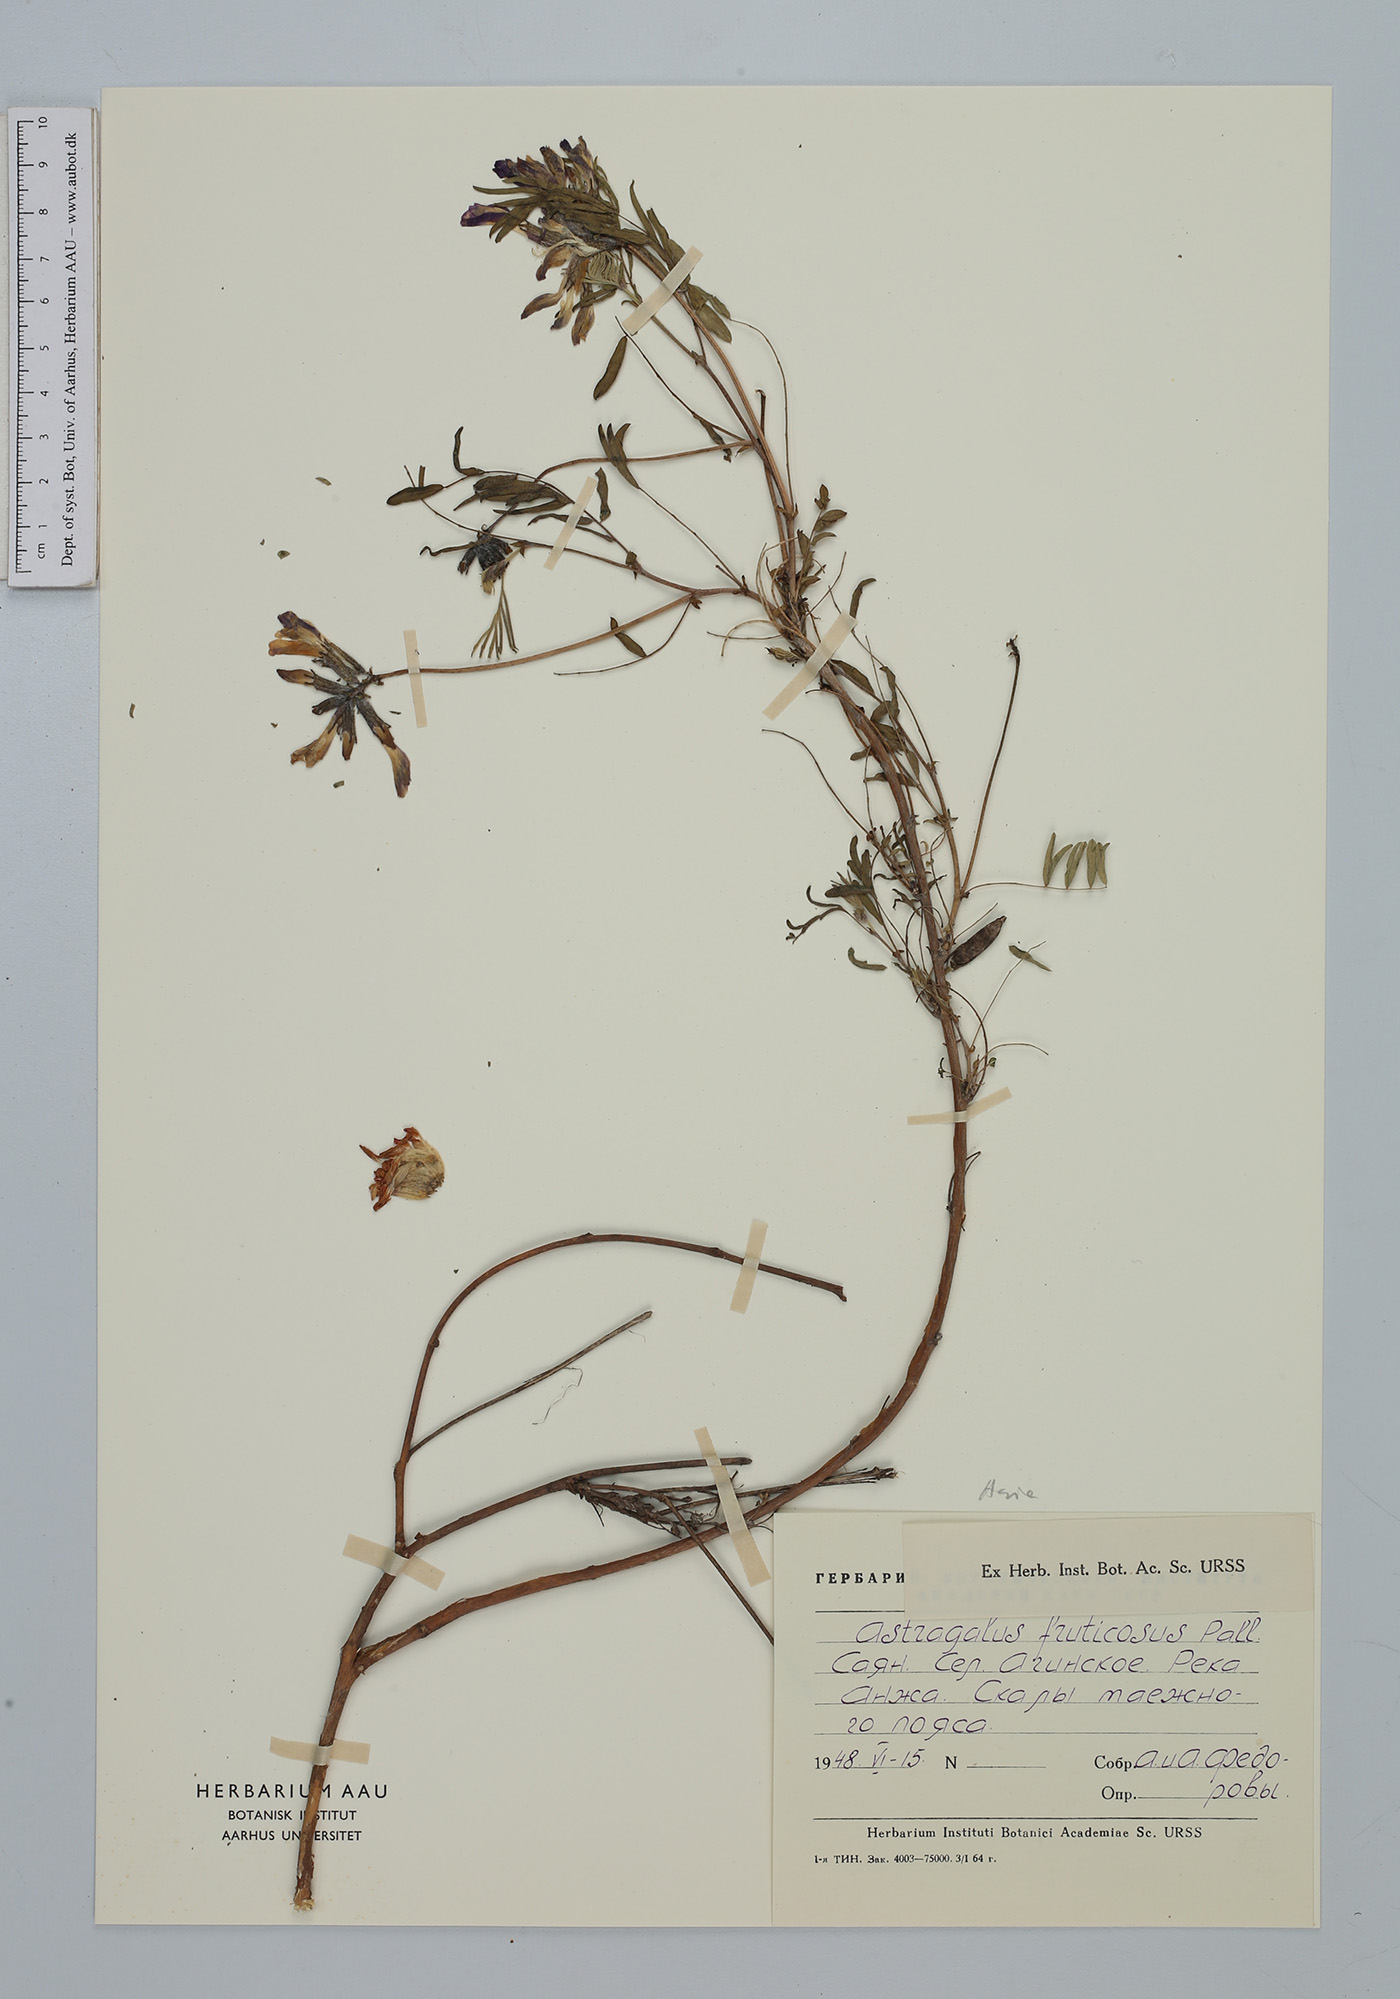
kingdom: Plantae
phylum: Tracheophyta
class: Magnoliopsida
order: Fabales
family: Fabaceae
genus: Astragalus
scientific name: Astragalus fruticosus
